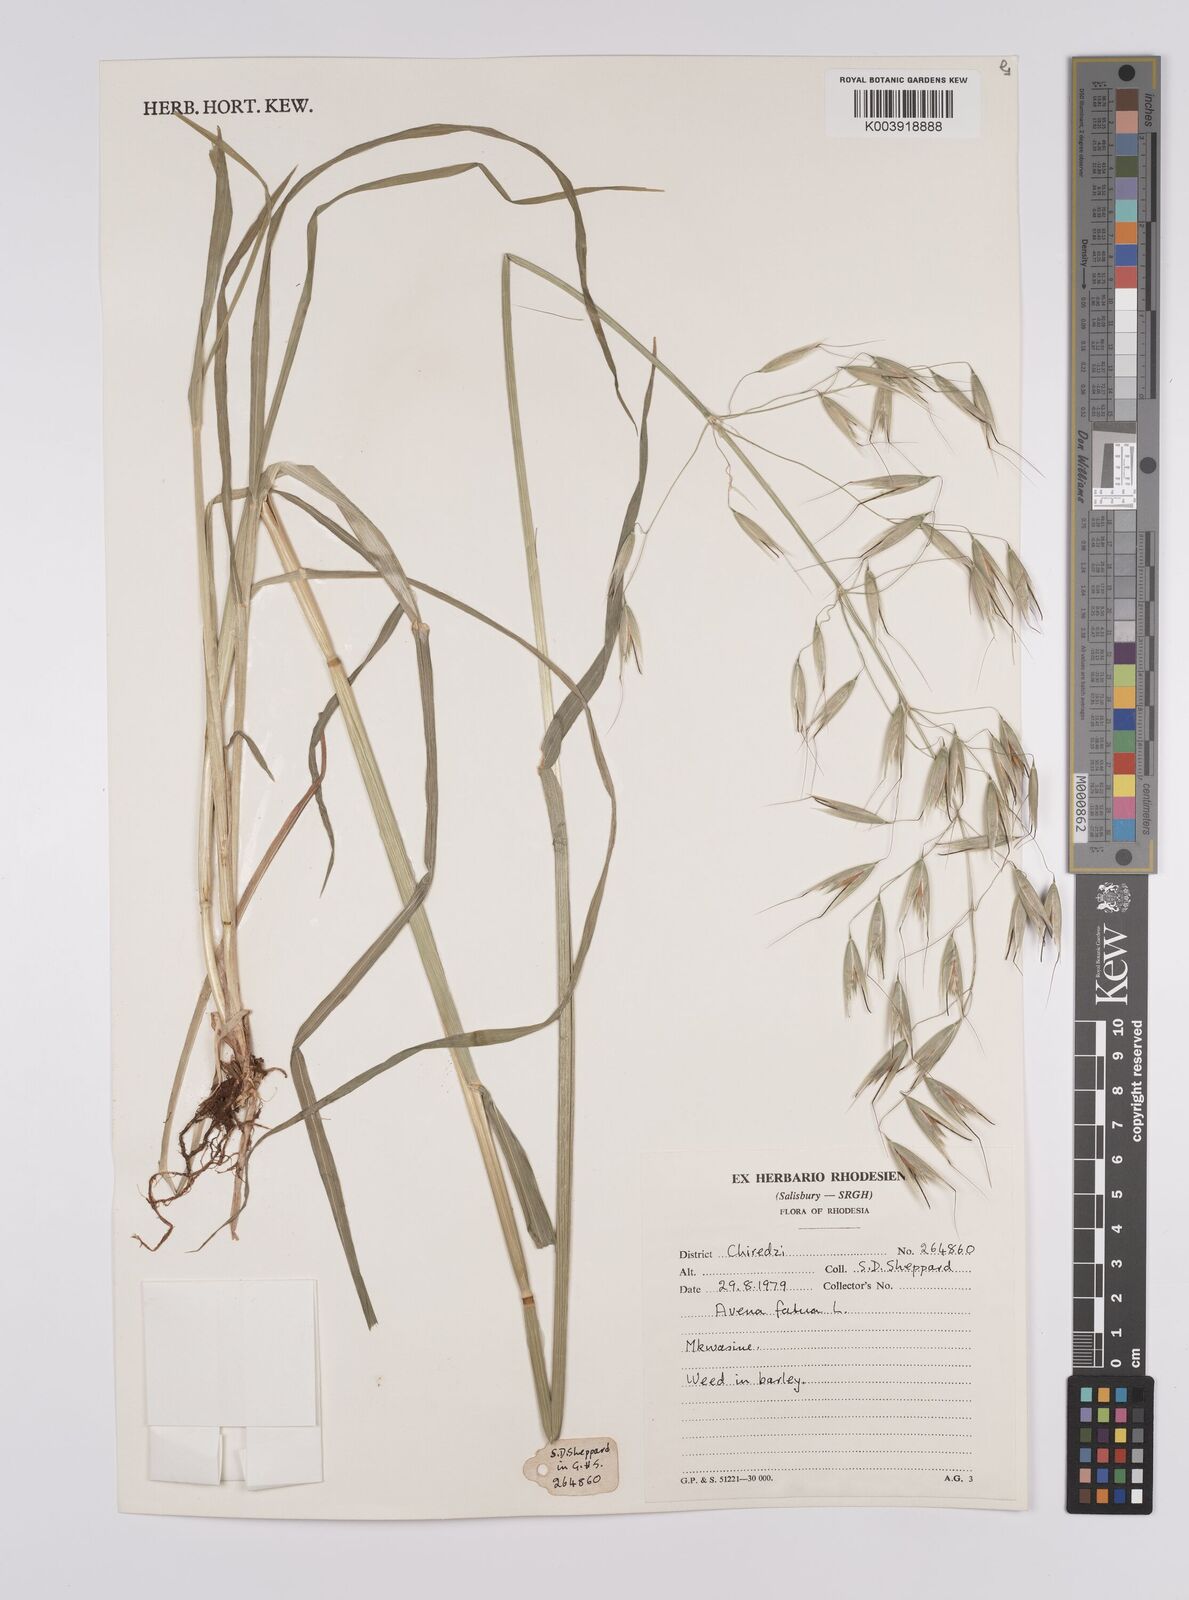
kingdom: Plantae
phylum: Tracheophyta
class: Liliopsida
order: Poales
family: Poaceae
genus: Avena
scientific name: Avena fatua
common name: Wild oat
